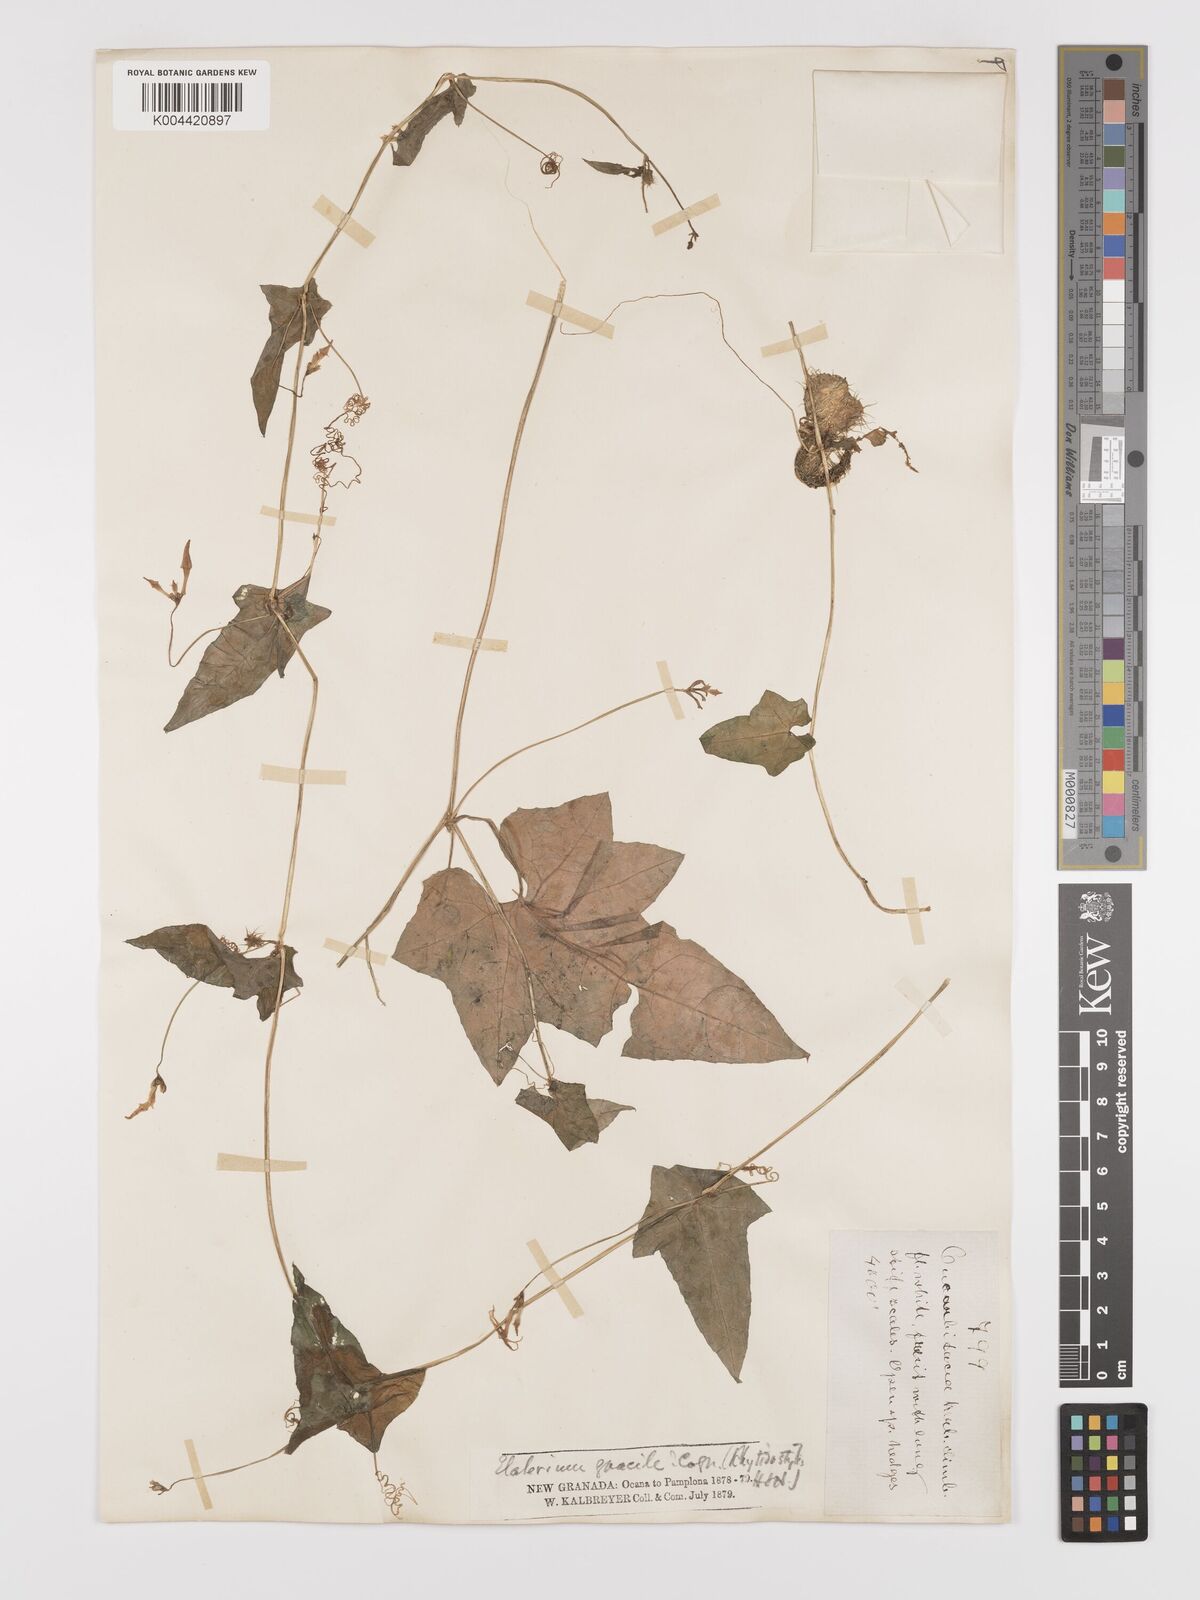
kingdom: Plantae
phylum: Tracheophyta
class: Magnoliopsida
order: Cucurbitales
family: Cucurbitaceae
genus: Cyclanthera
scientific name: Cyclanthera filiformis
